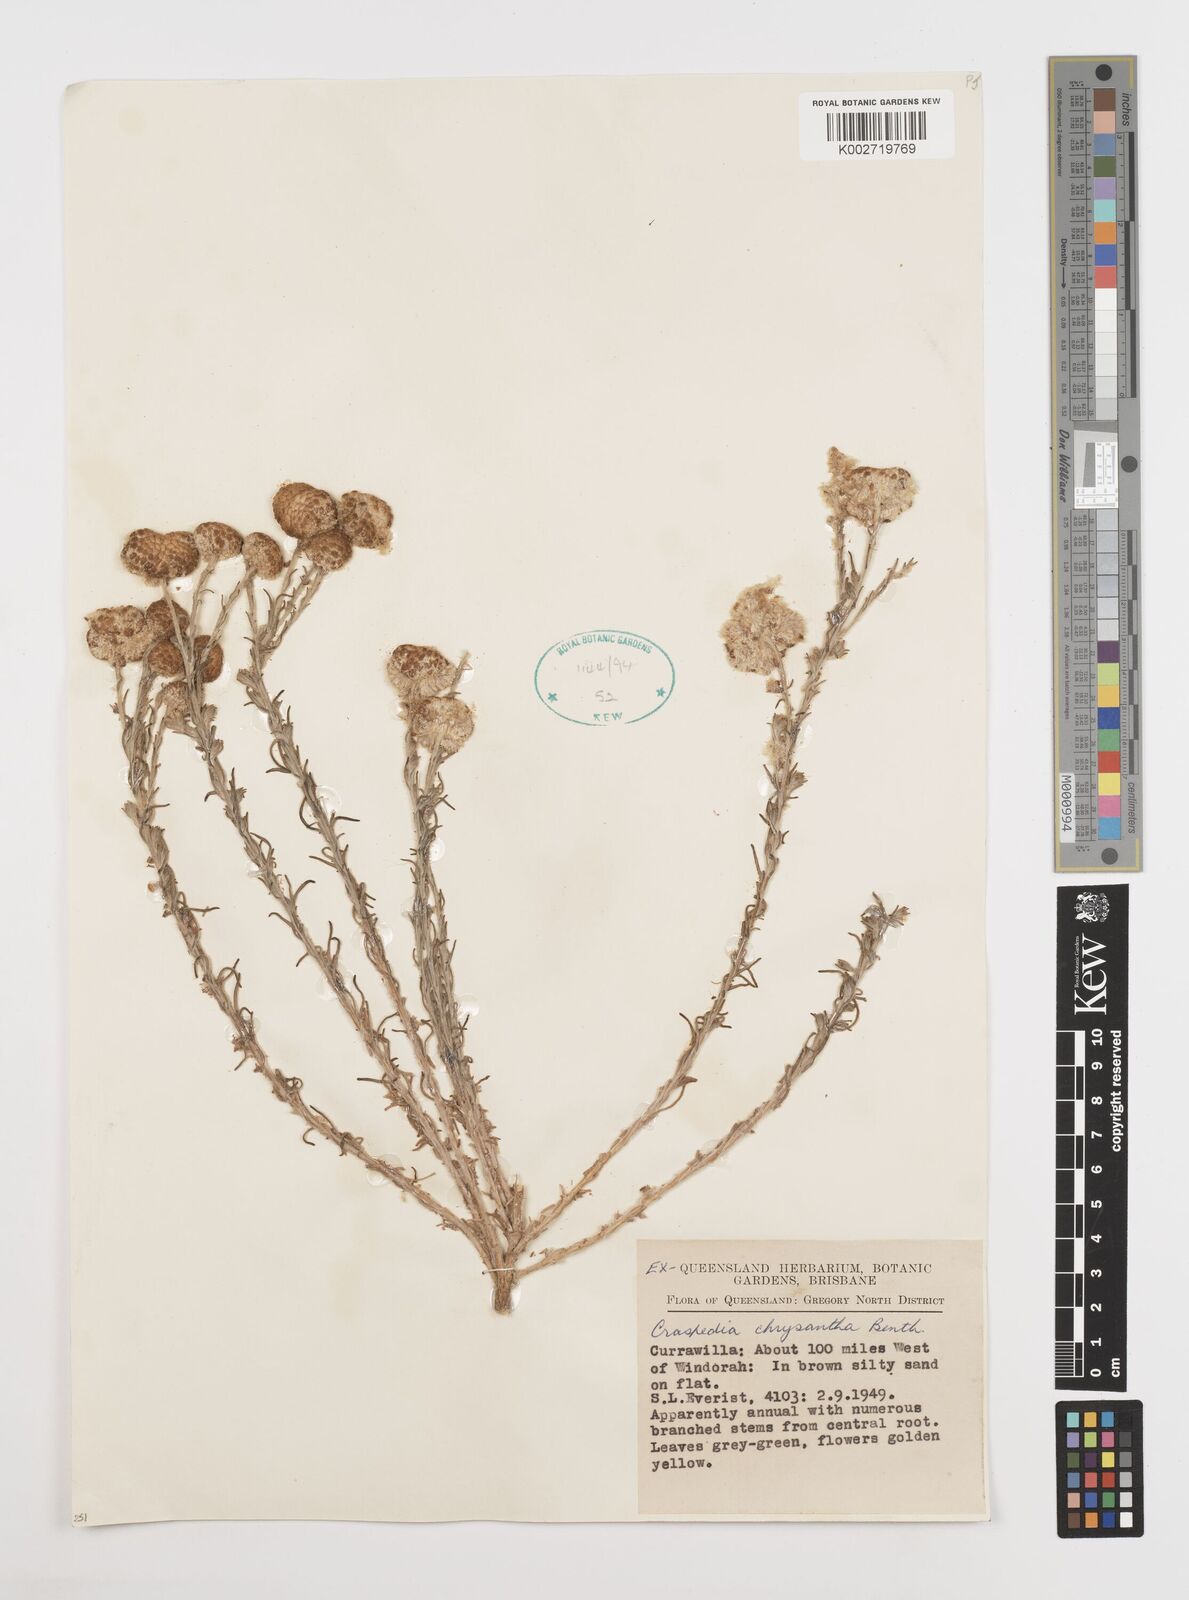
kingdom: Plantae
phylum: Tracheophyta
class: Magnoliopsida
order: Asterales
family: Asteraceae
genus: Pycnosorus
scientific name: Pycnosorus chrysanthus
